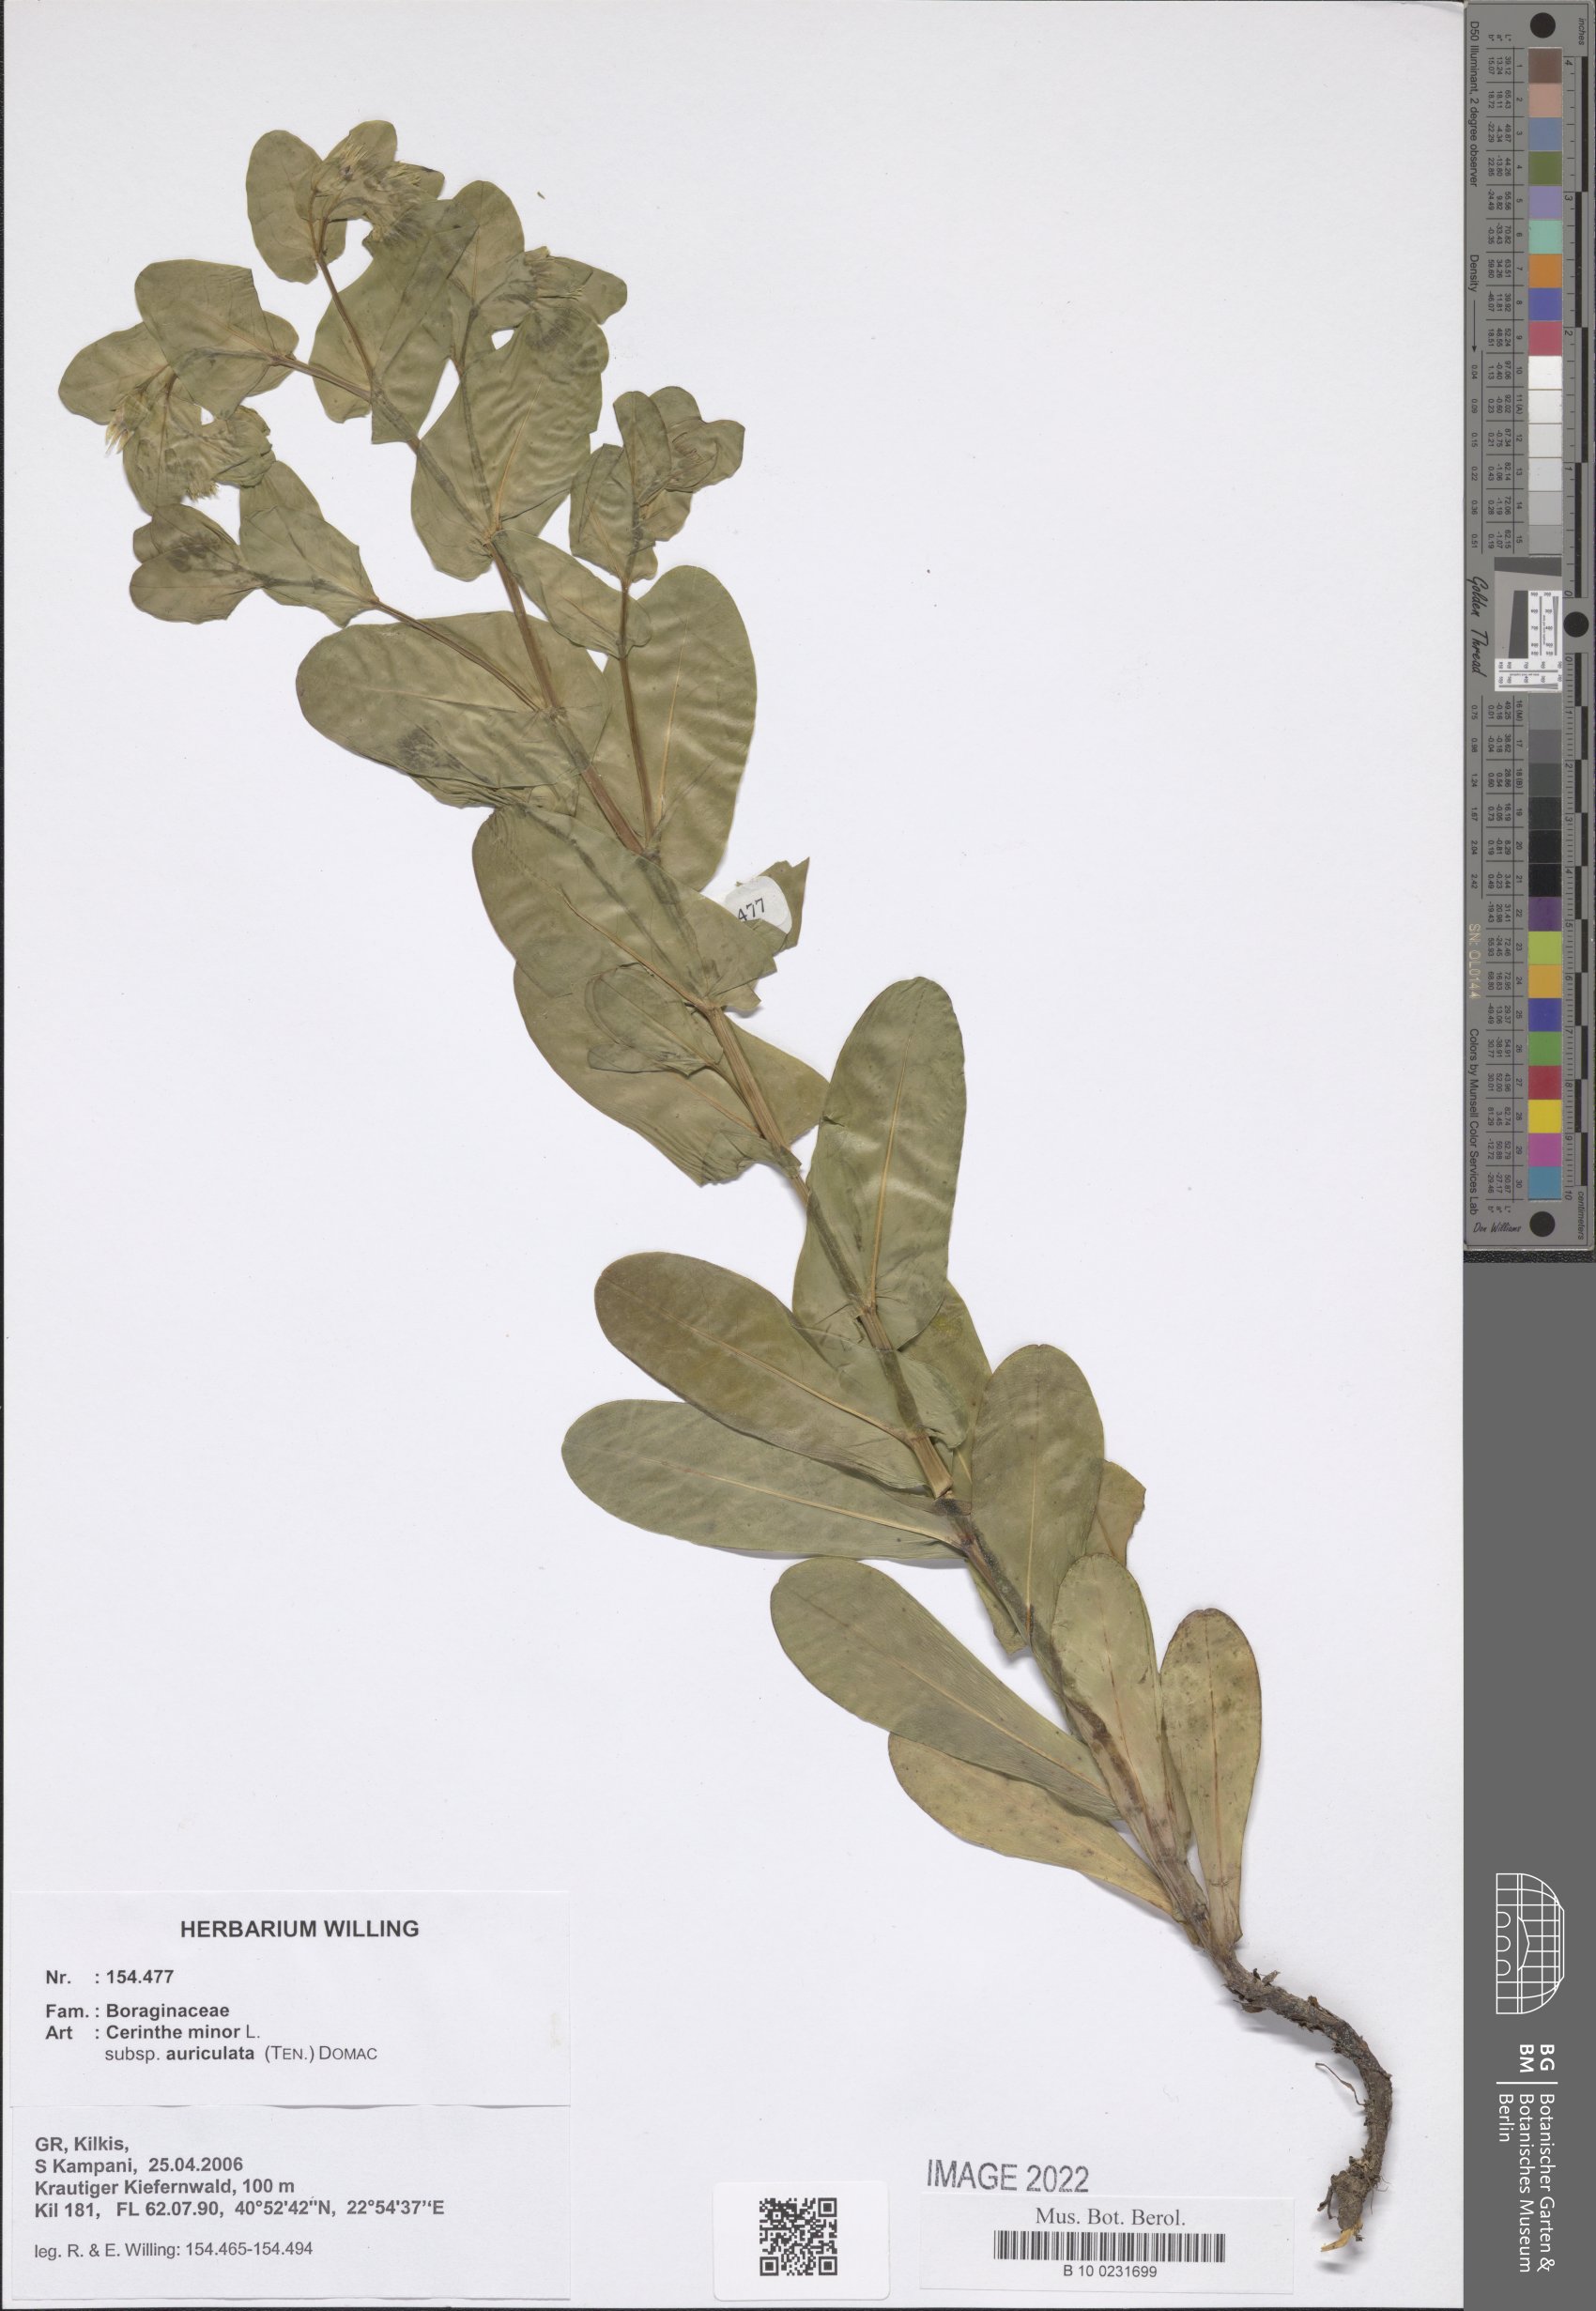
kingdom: Plantae
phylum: Tracheophyta
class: Magnoliopsida
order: Boraginales
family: Boraginaceae
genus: Cerinthe
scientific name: Cerinthe minor
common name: Lesser honeywort
